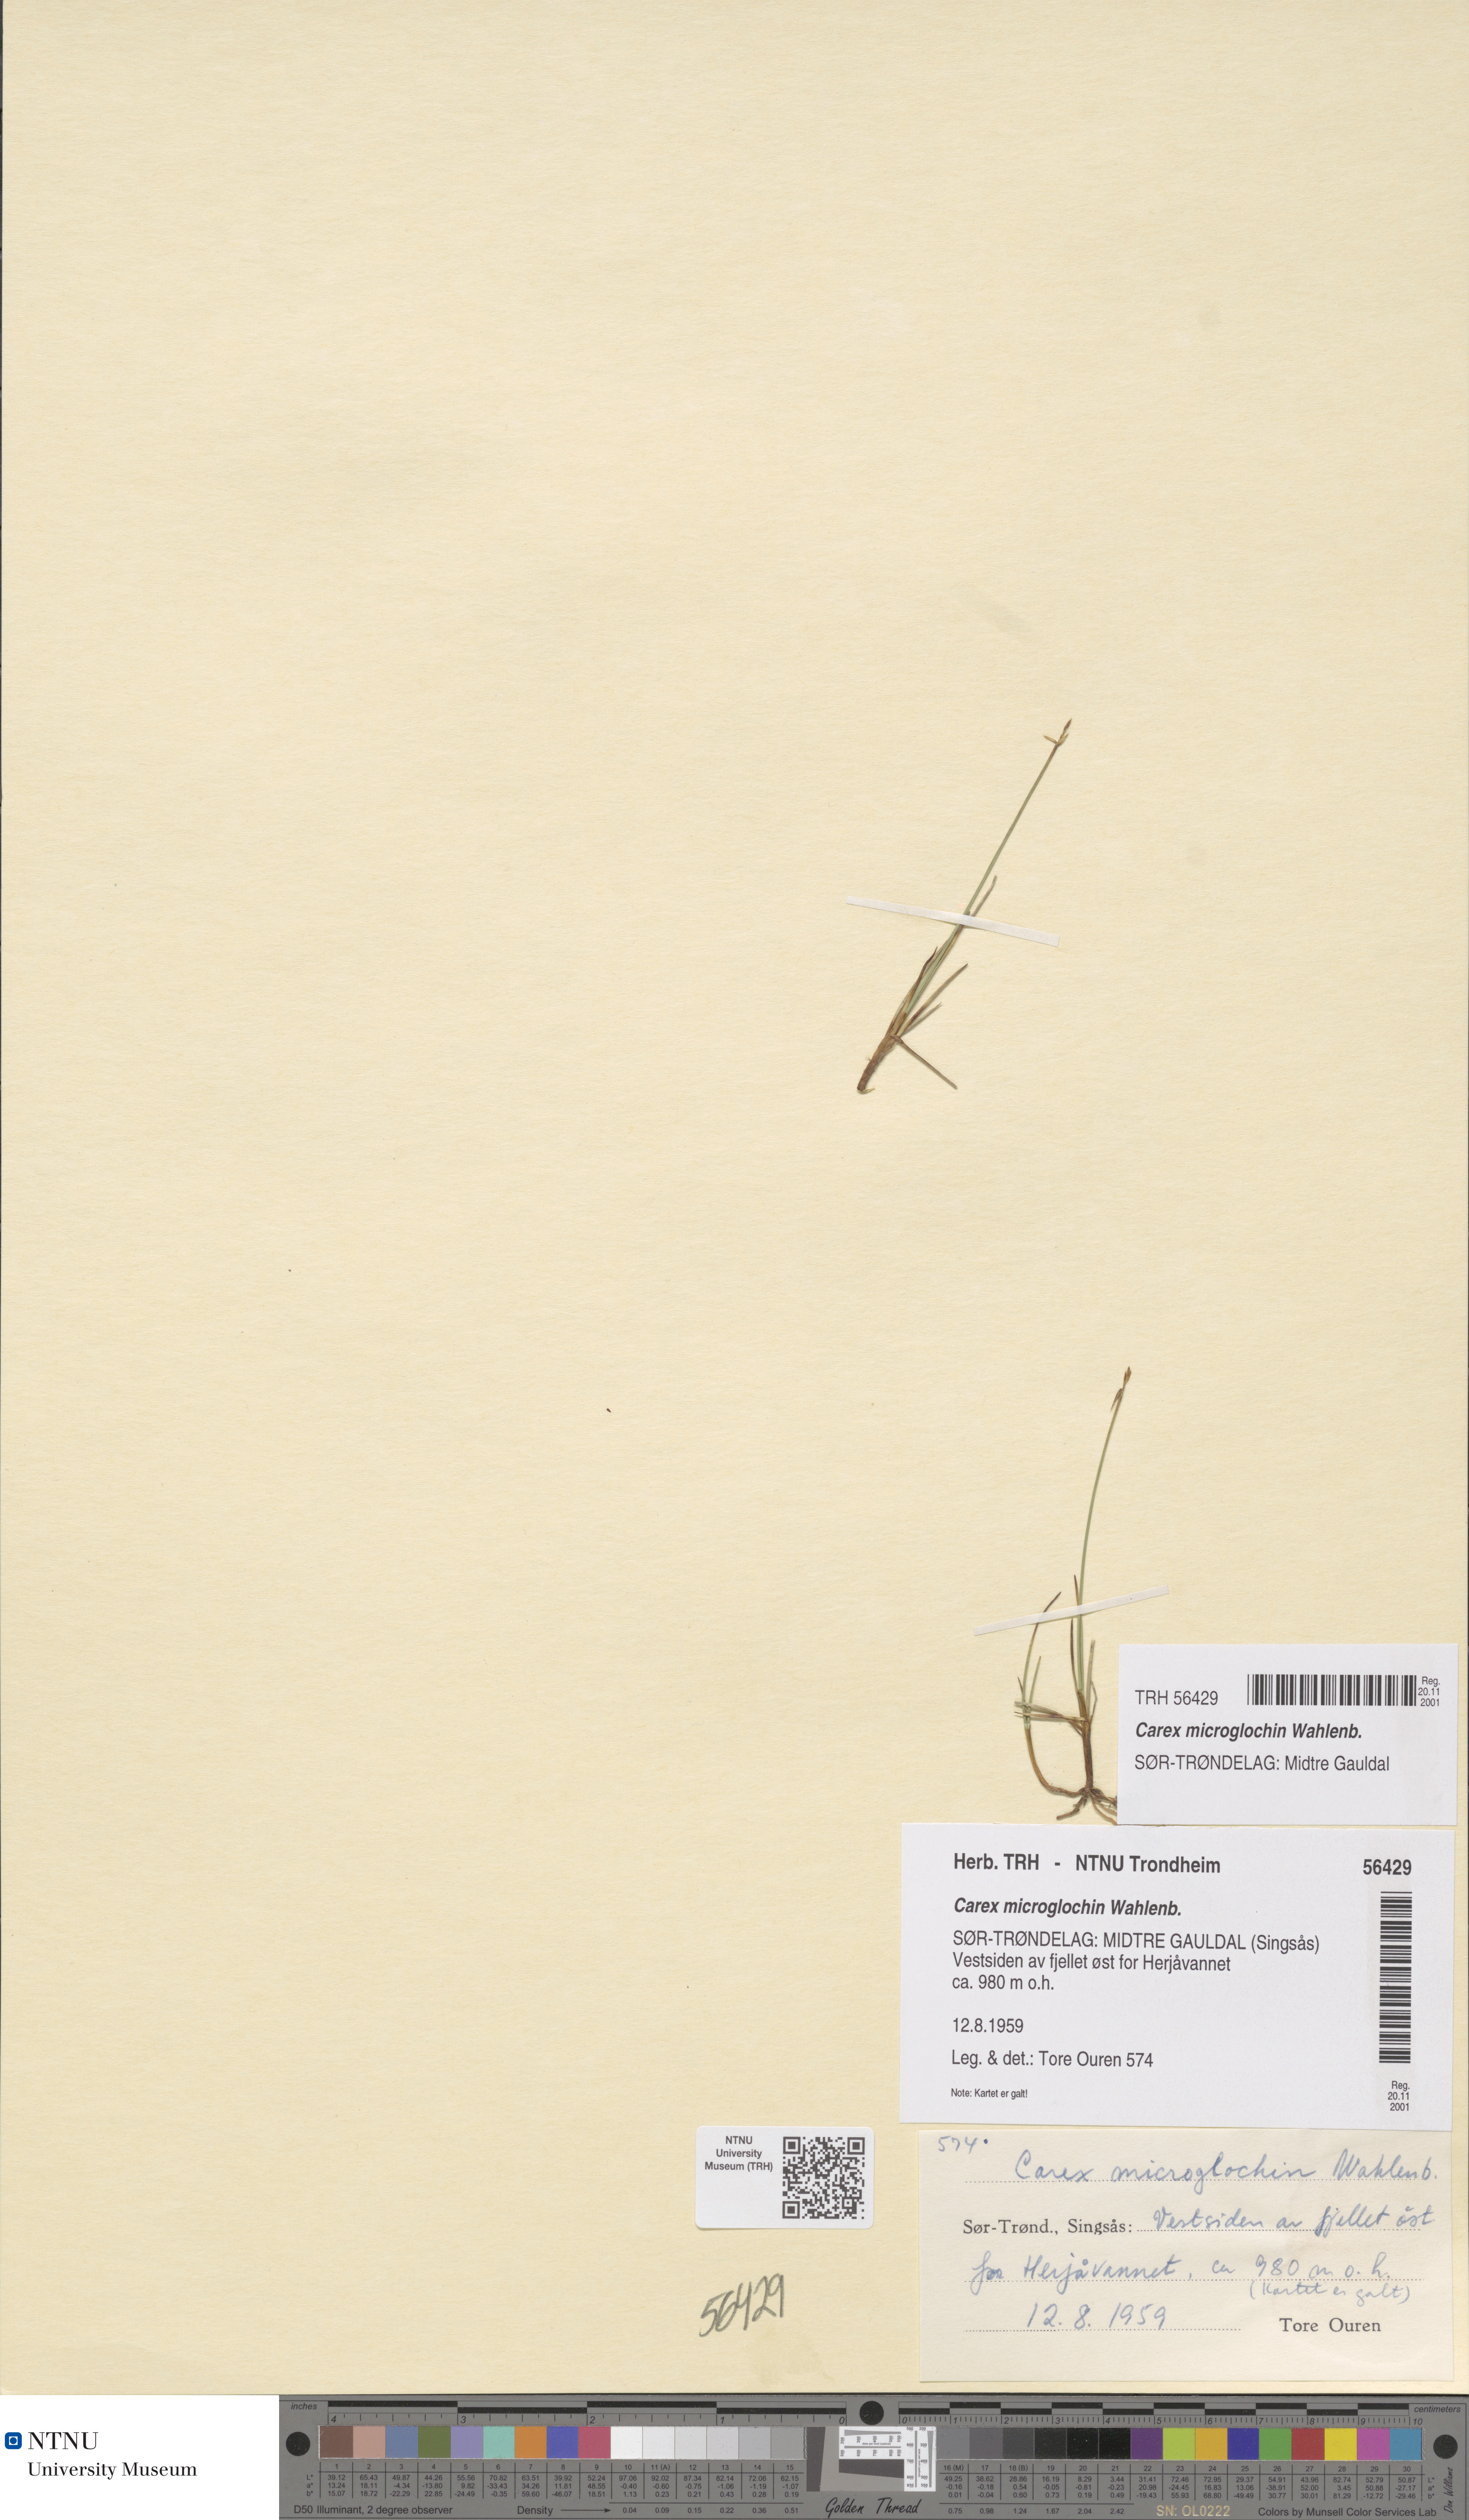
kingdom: Plantae
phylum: Tracheophyta
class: Liliopsida
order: Poales
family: Cyperaceae
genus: Carex
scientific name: Carex microglochin
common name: Bristle sedge
